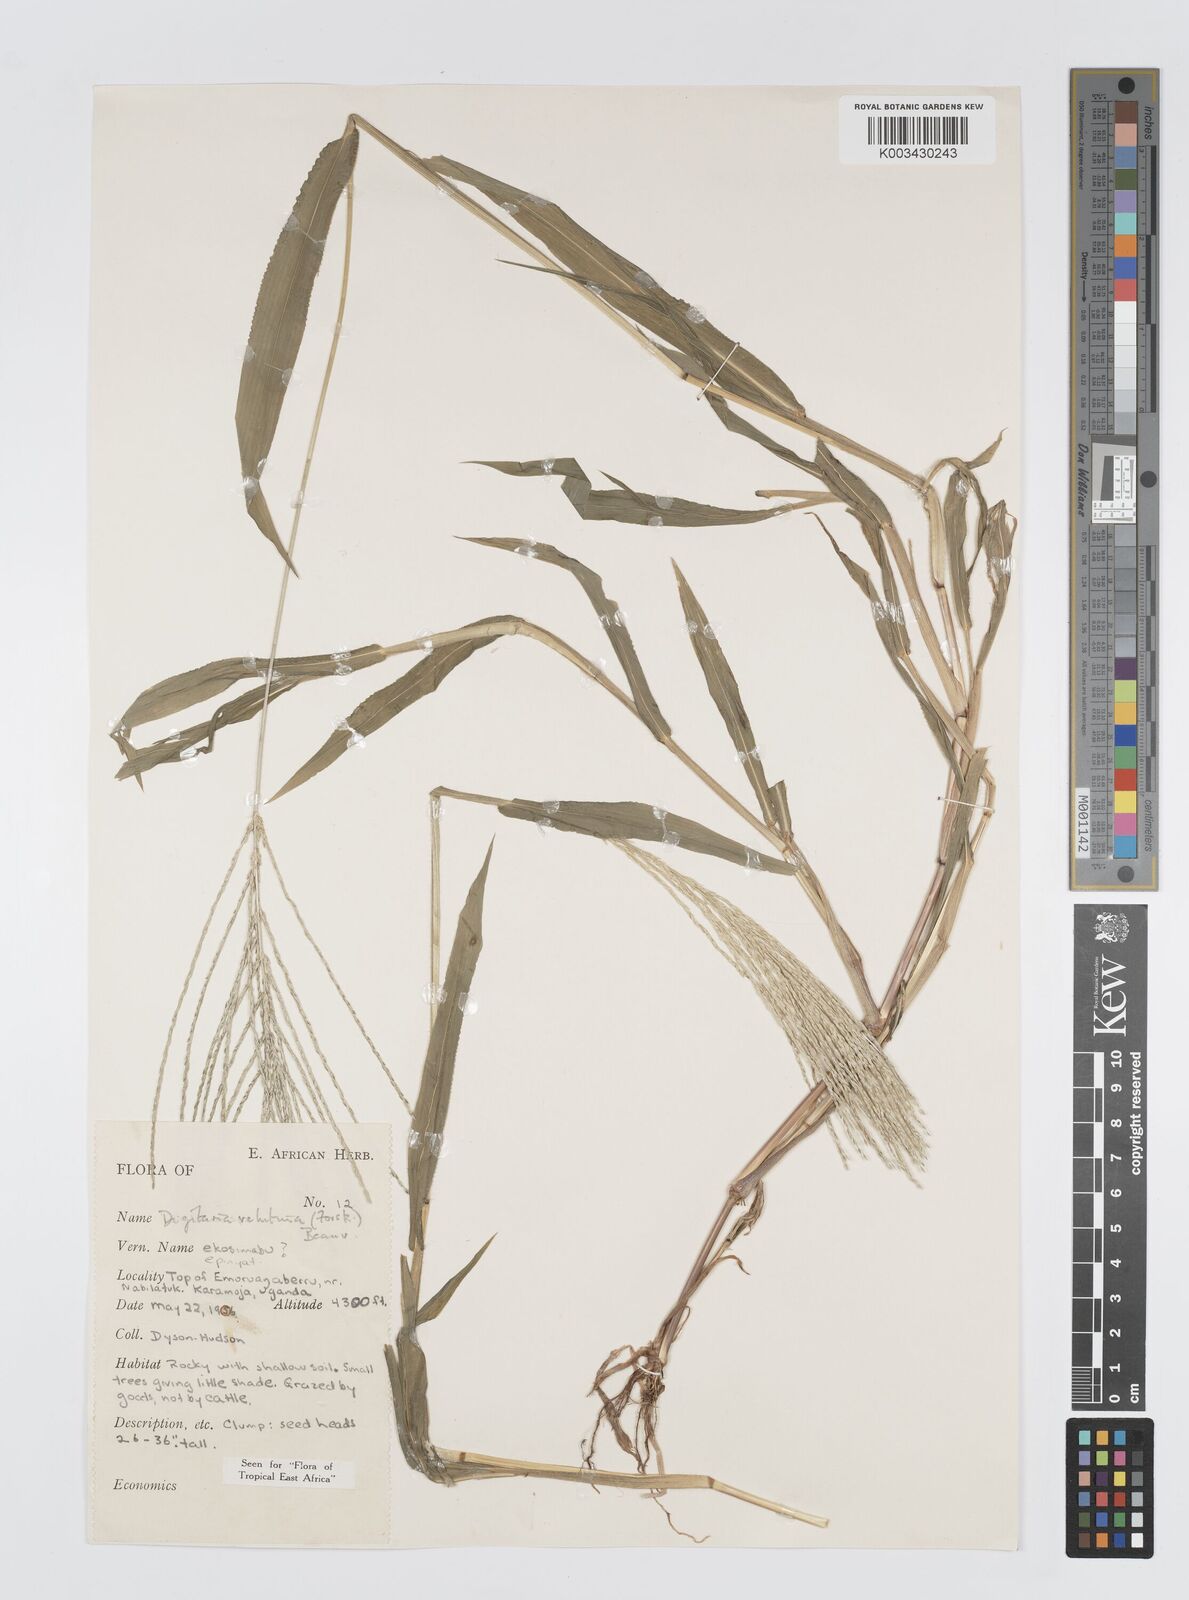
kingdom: Plantae
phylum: Tracheophyta
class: Liliopsida
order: Poales
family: Poaceae
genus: Digitaria
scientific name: Digitaria velutina
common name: Long-plume finger grass
